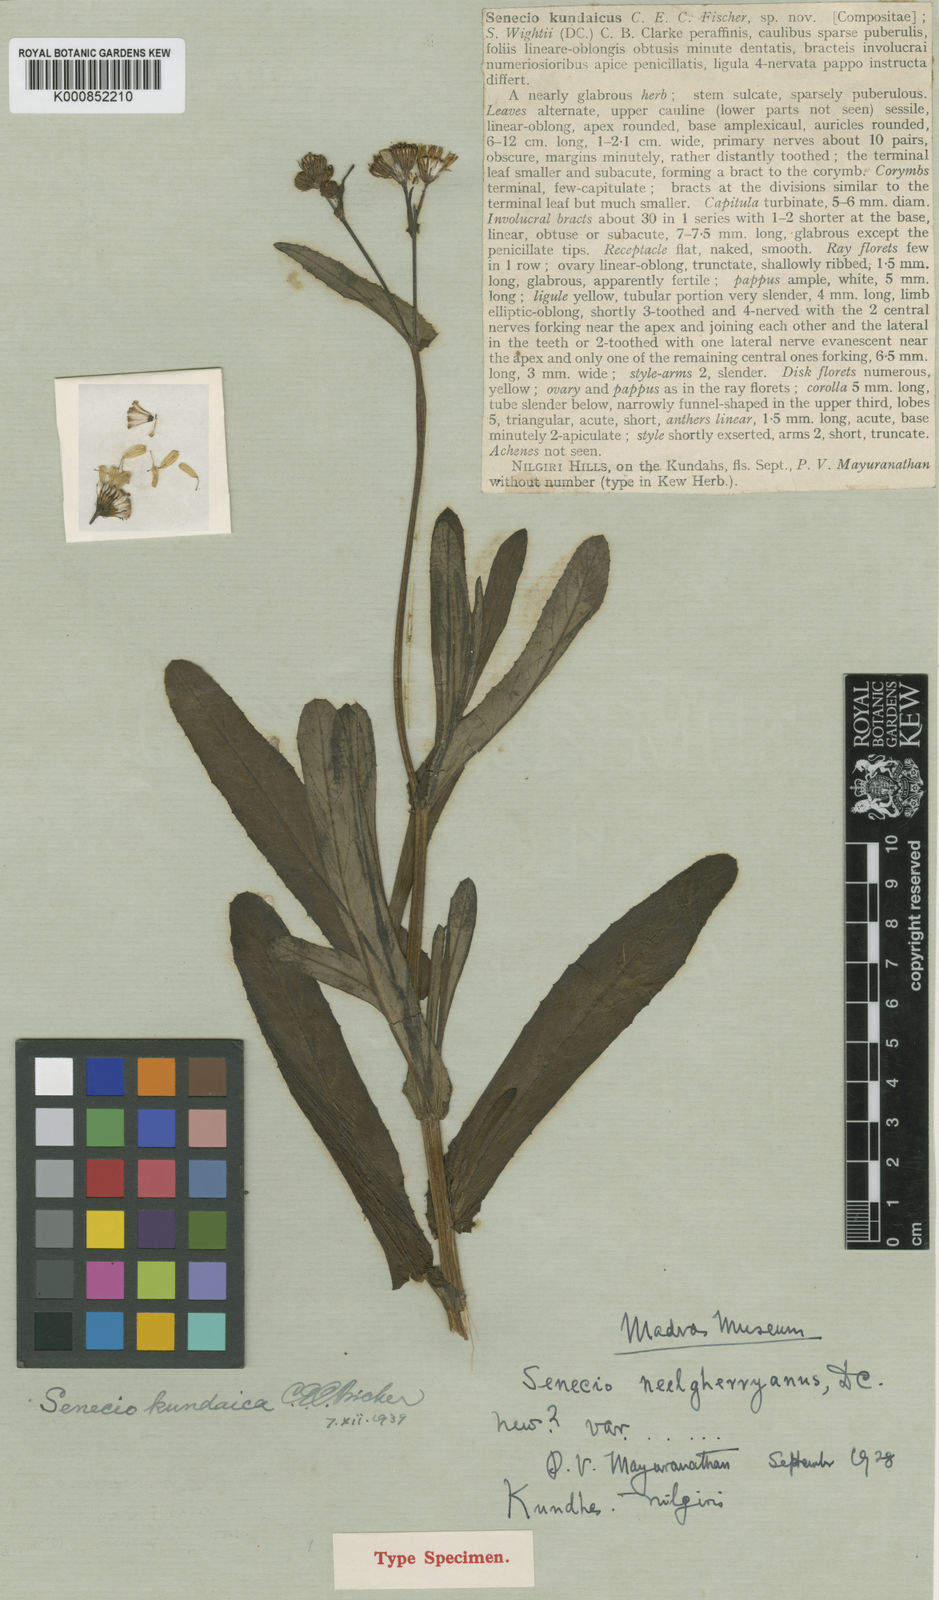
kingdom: Plantae
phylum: Tracheophyta
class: Magnoliopsida
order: Asterales
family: Asteraceae
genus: Senecio
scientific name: Senecio kundaicus
